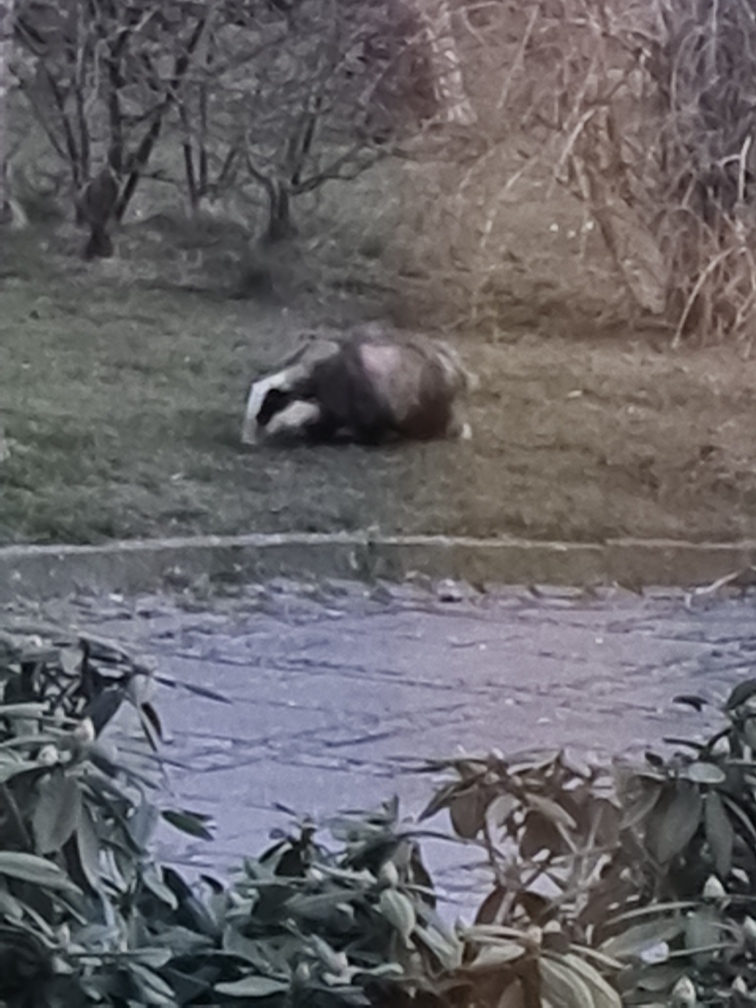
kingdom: Animalia
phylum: Chordata
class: Mammalia
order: Carnivora
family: Mustelidae
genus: Meles
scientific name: Meles meles
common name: Grævling
